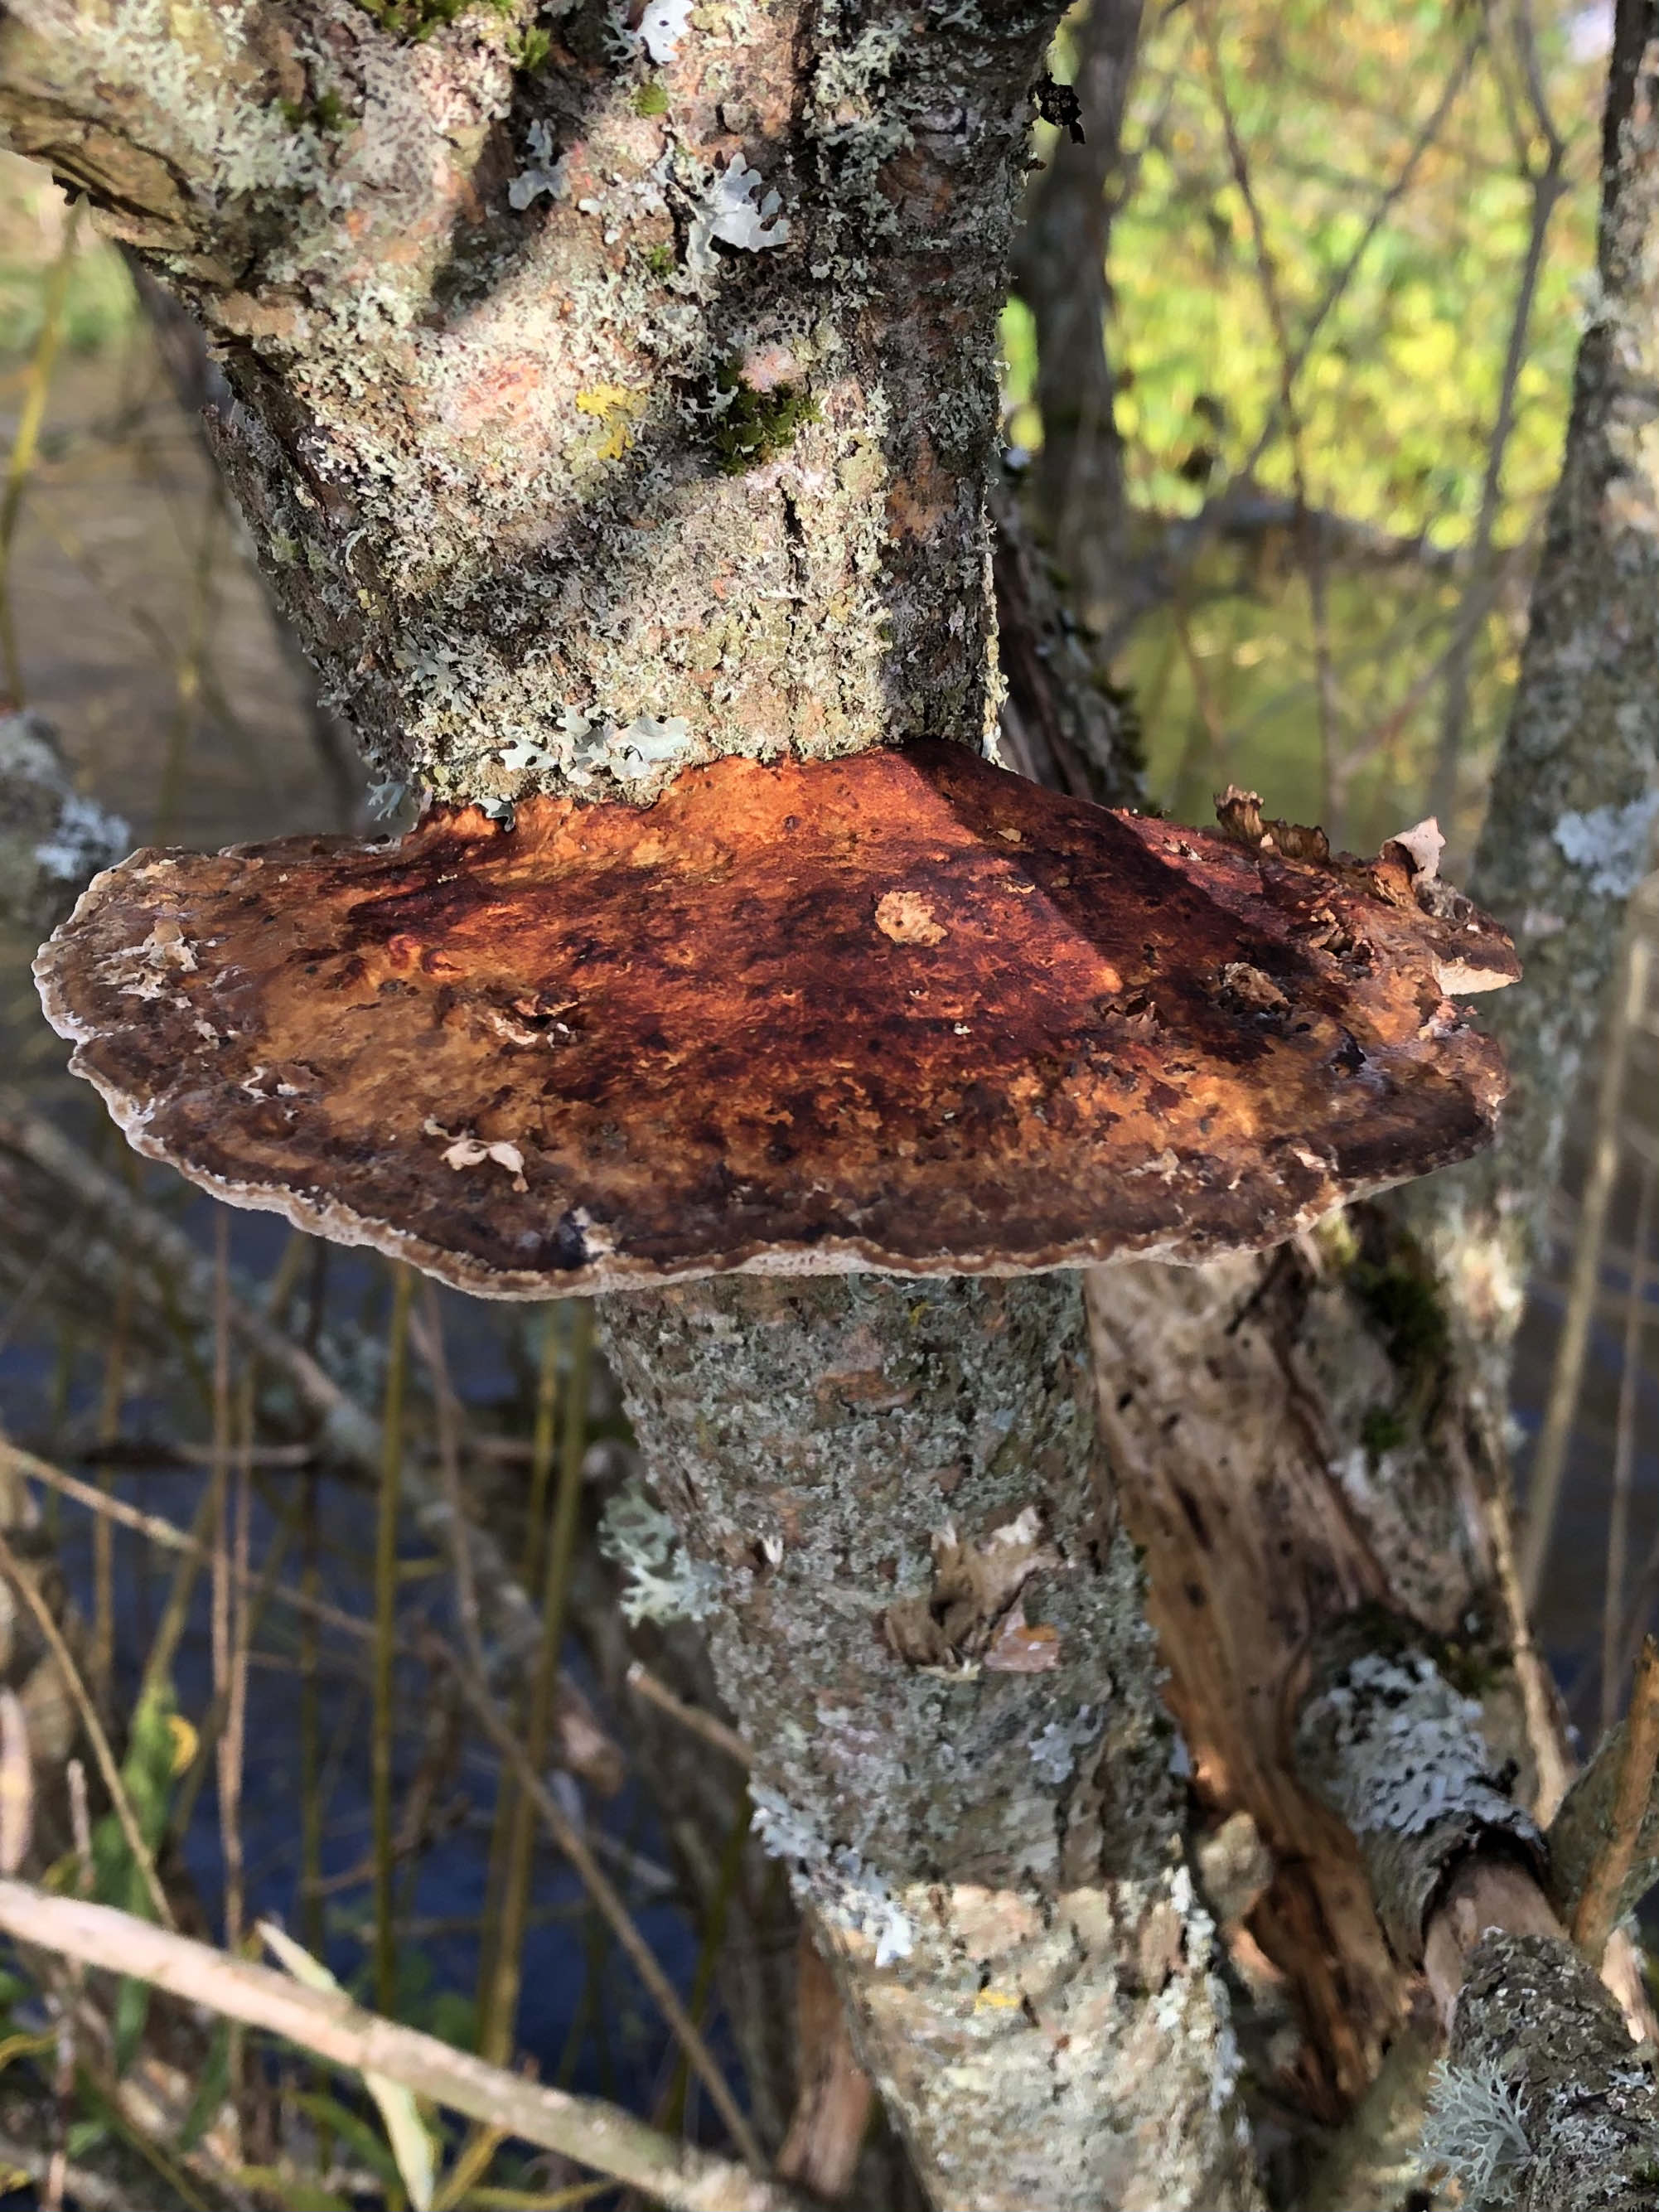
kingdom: Fungi
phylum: Basidiomycota
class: Agaricomycetes
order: Polyporales
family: Polyporaceae
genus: Daedaleopsis
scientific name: Daedaleopsis confragosa
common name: rødmende læderporesvamp
